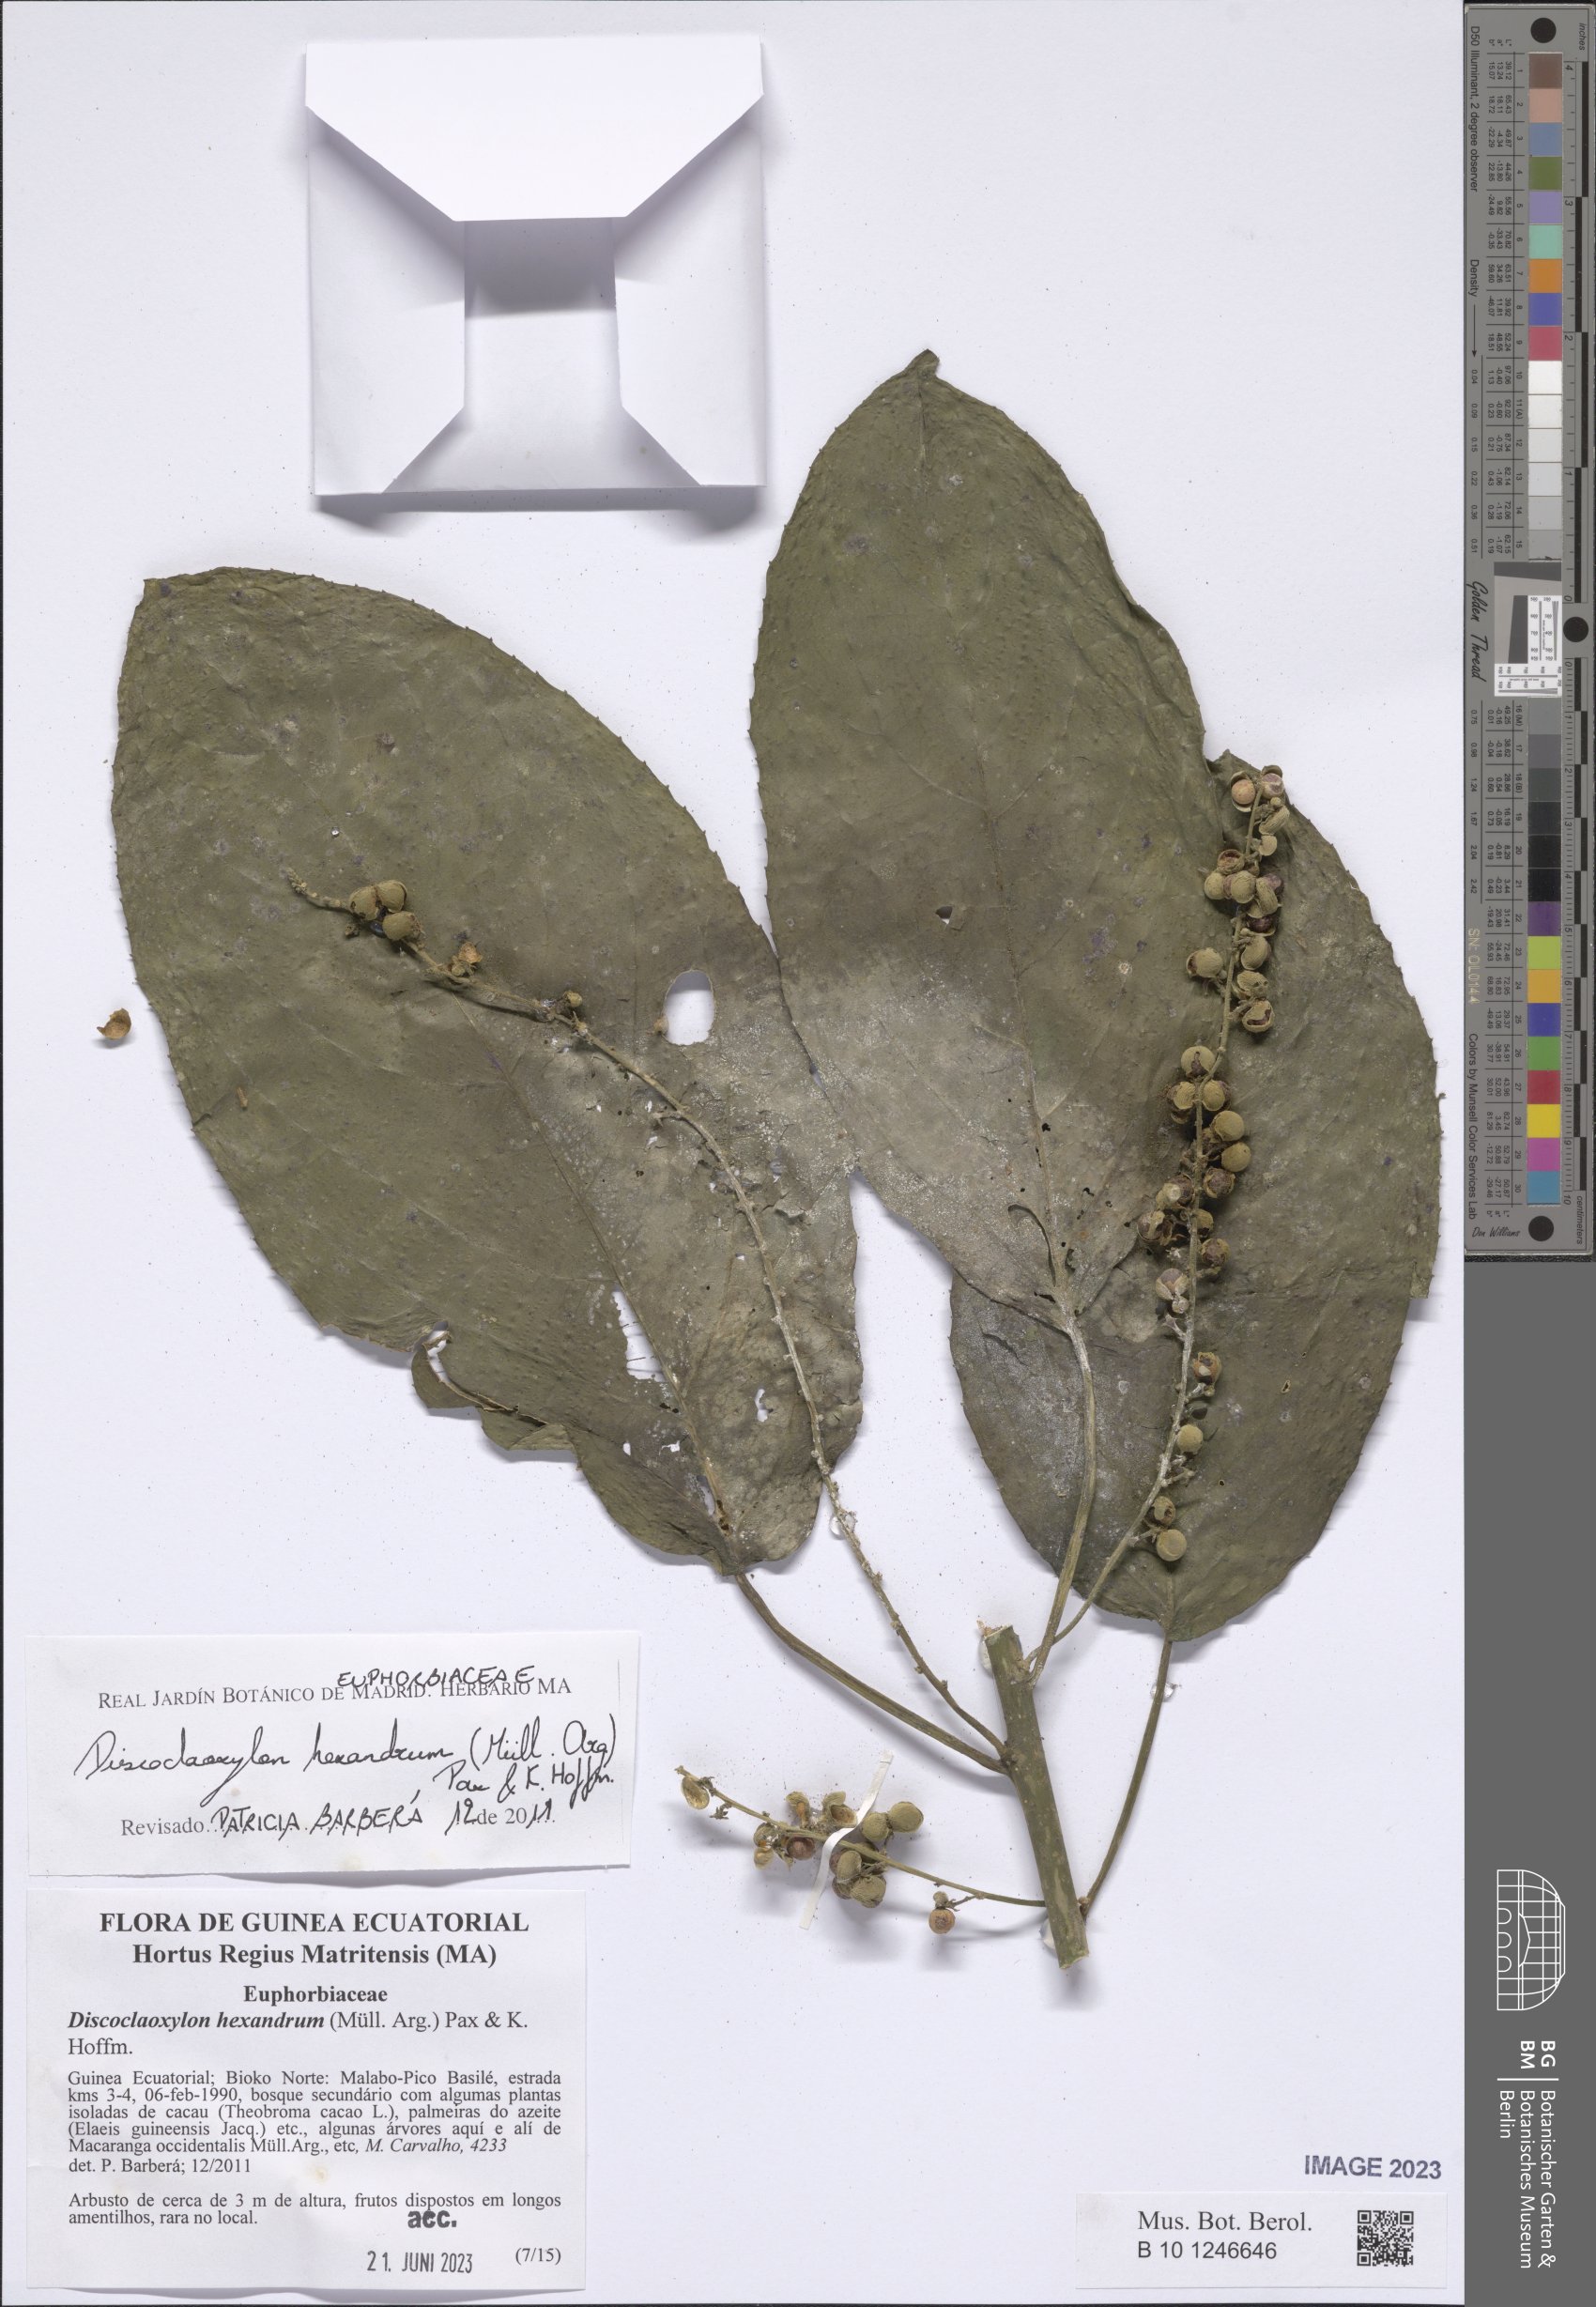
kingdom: Plantae
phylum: Tracheophyta
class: Magnoliopsida
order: Malpighiales
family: Euphorbiaceae
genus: Discoclaoxylon
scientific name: Discoclaoxylon hexandrum
